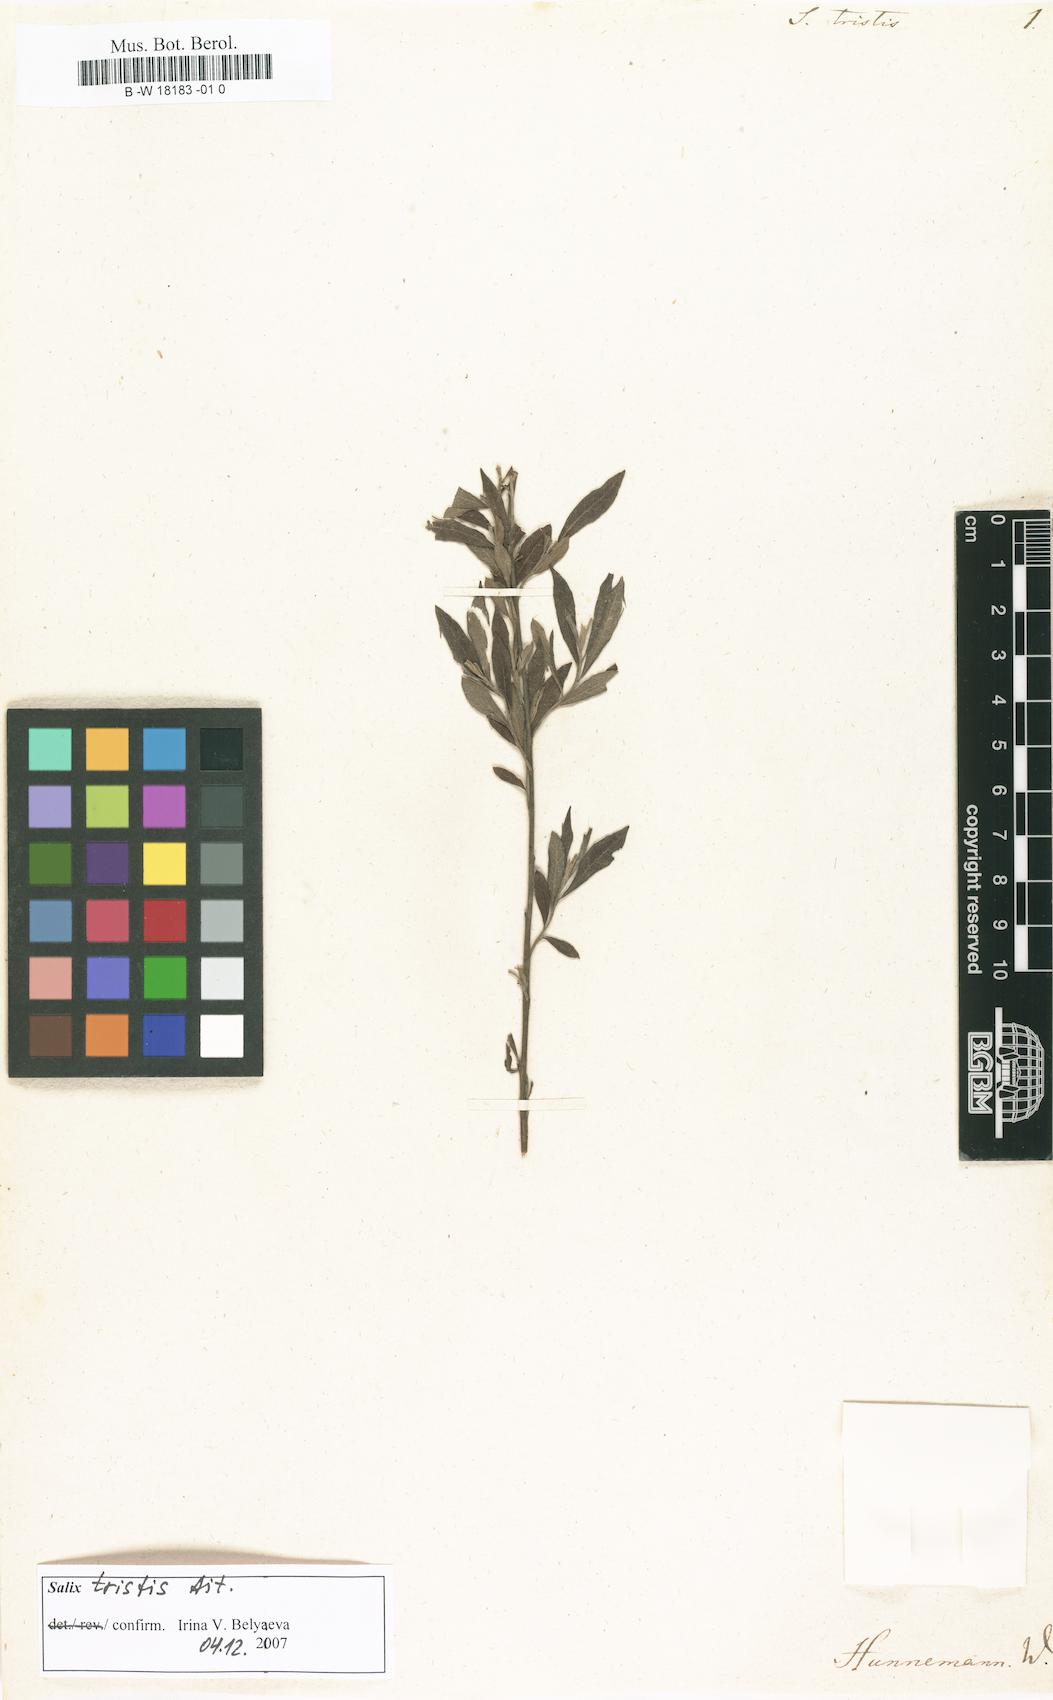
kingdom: Plantae
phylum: Tracheophyta
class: Magnoliopsida
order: Malpighiales
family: Salicaceae
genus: Salix
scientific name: Salix humilis
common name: Prairie willow
